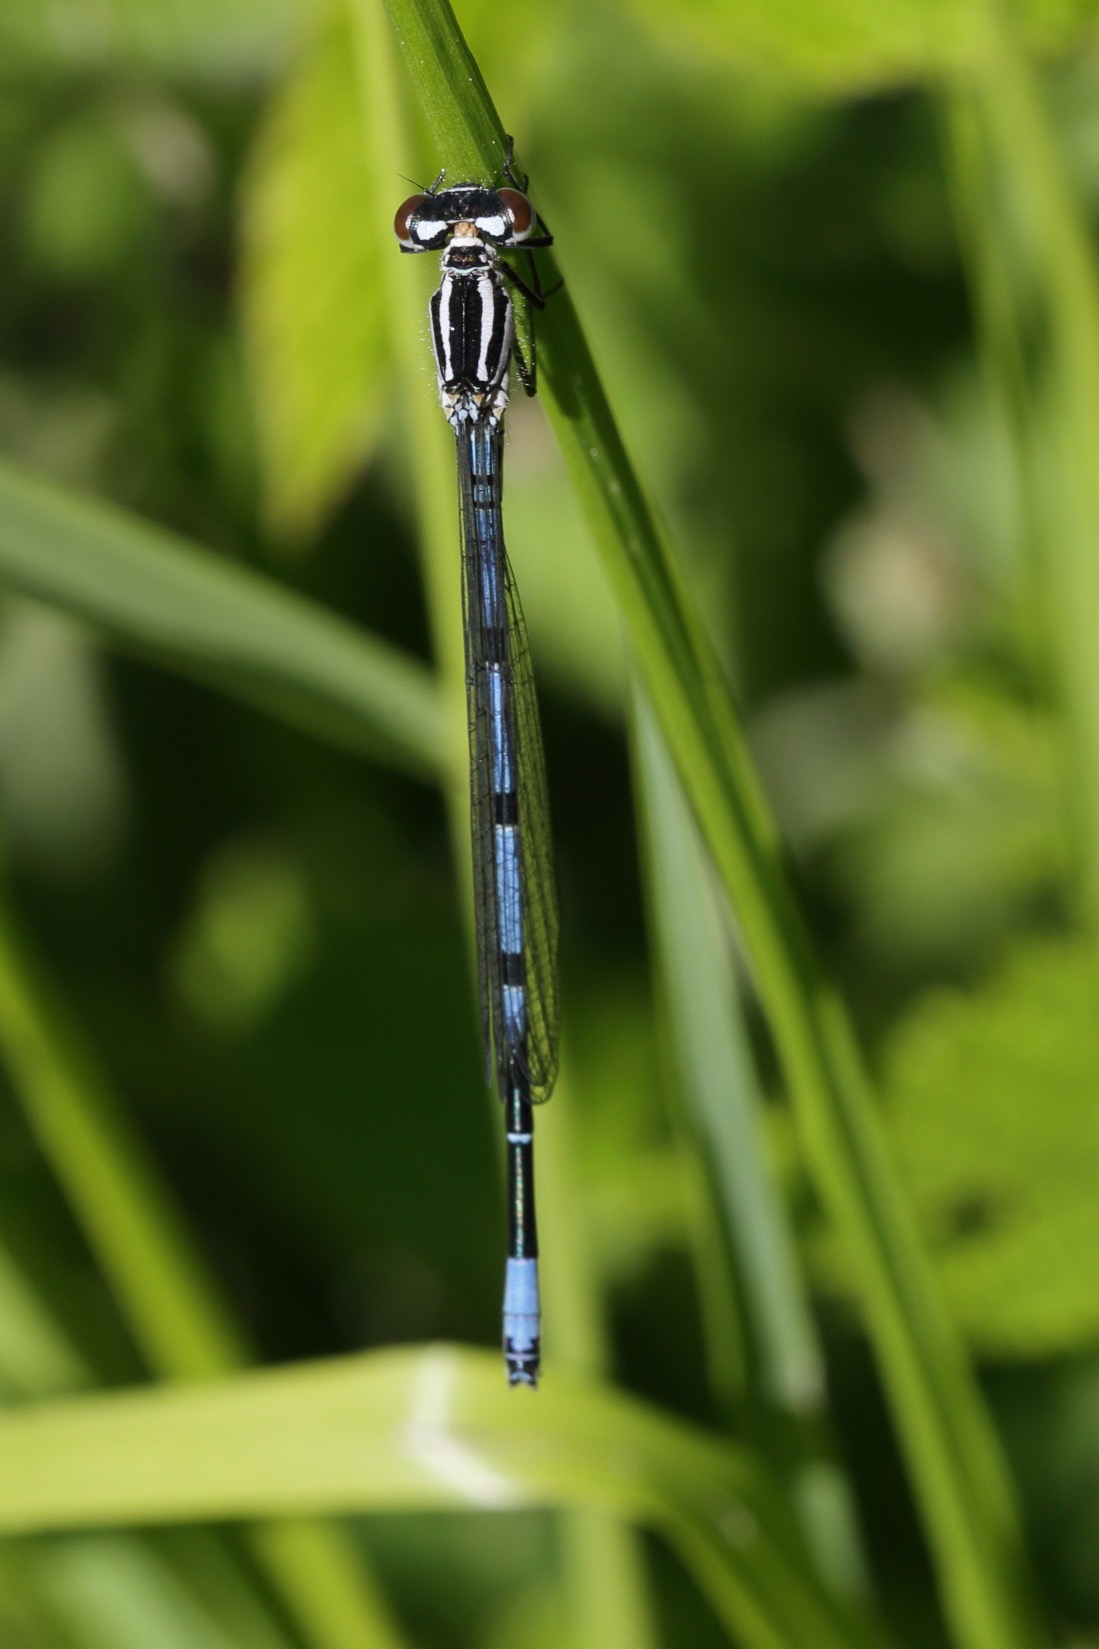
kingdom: Animalia
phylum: Arthropoda
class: Insecta
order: Odonata
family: Coenagrionidae
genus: Coenagrion
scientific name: Coenagrion puella
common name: Hestesko-vandnymfe
